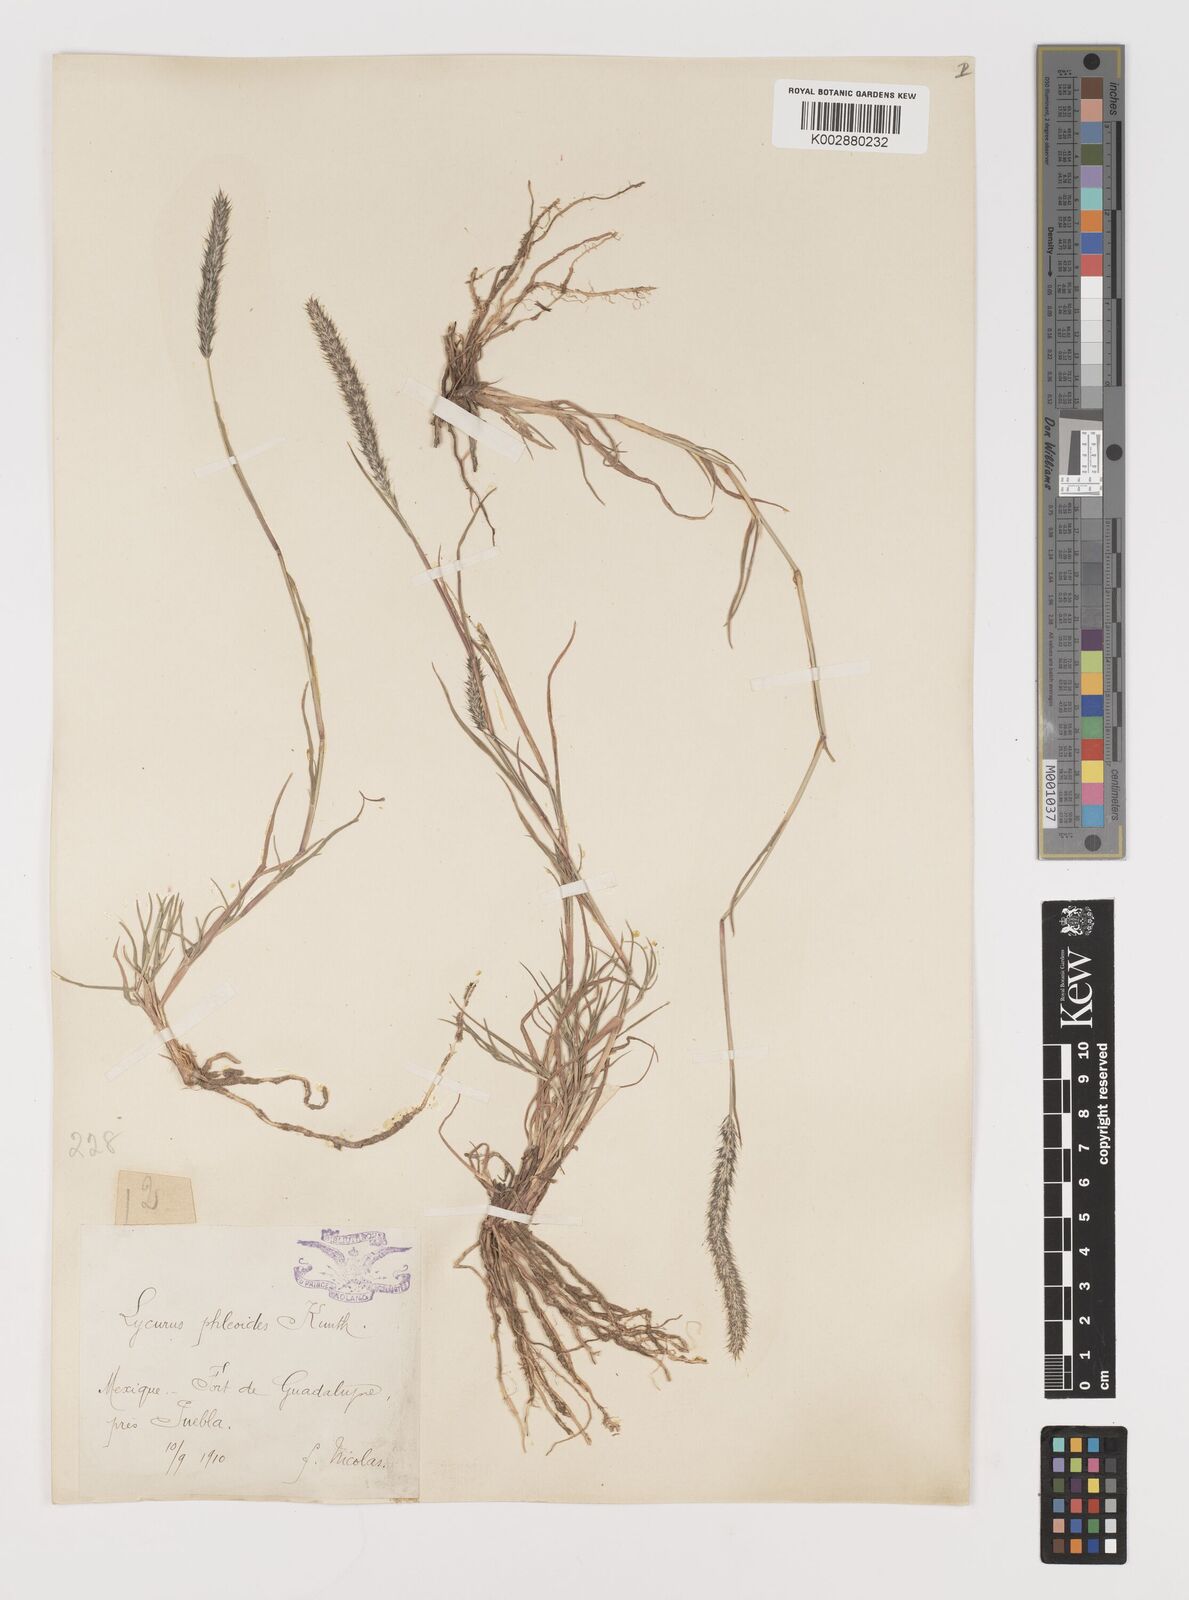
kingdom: Plantae
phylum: Tracheophyta
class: Liliopsida
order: Poales
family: Poaceae
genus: Muhlenbergia
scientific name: Muhlenbergia phleoides
